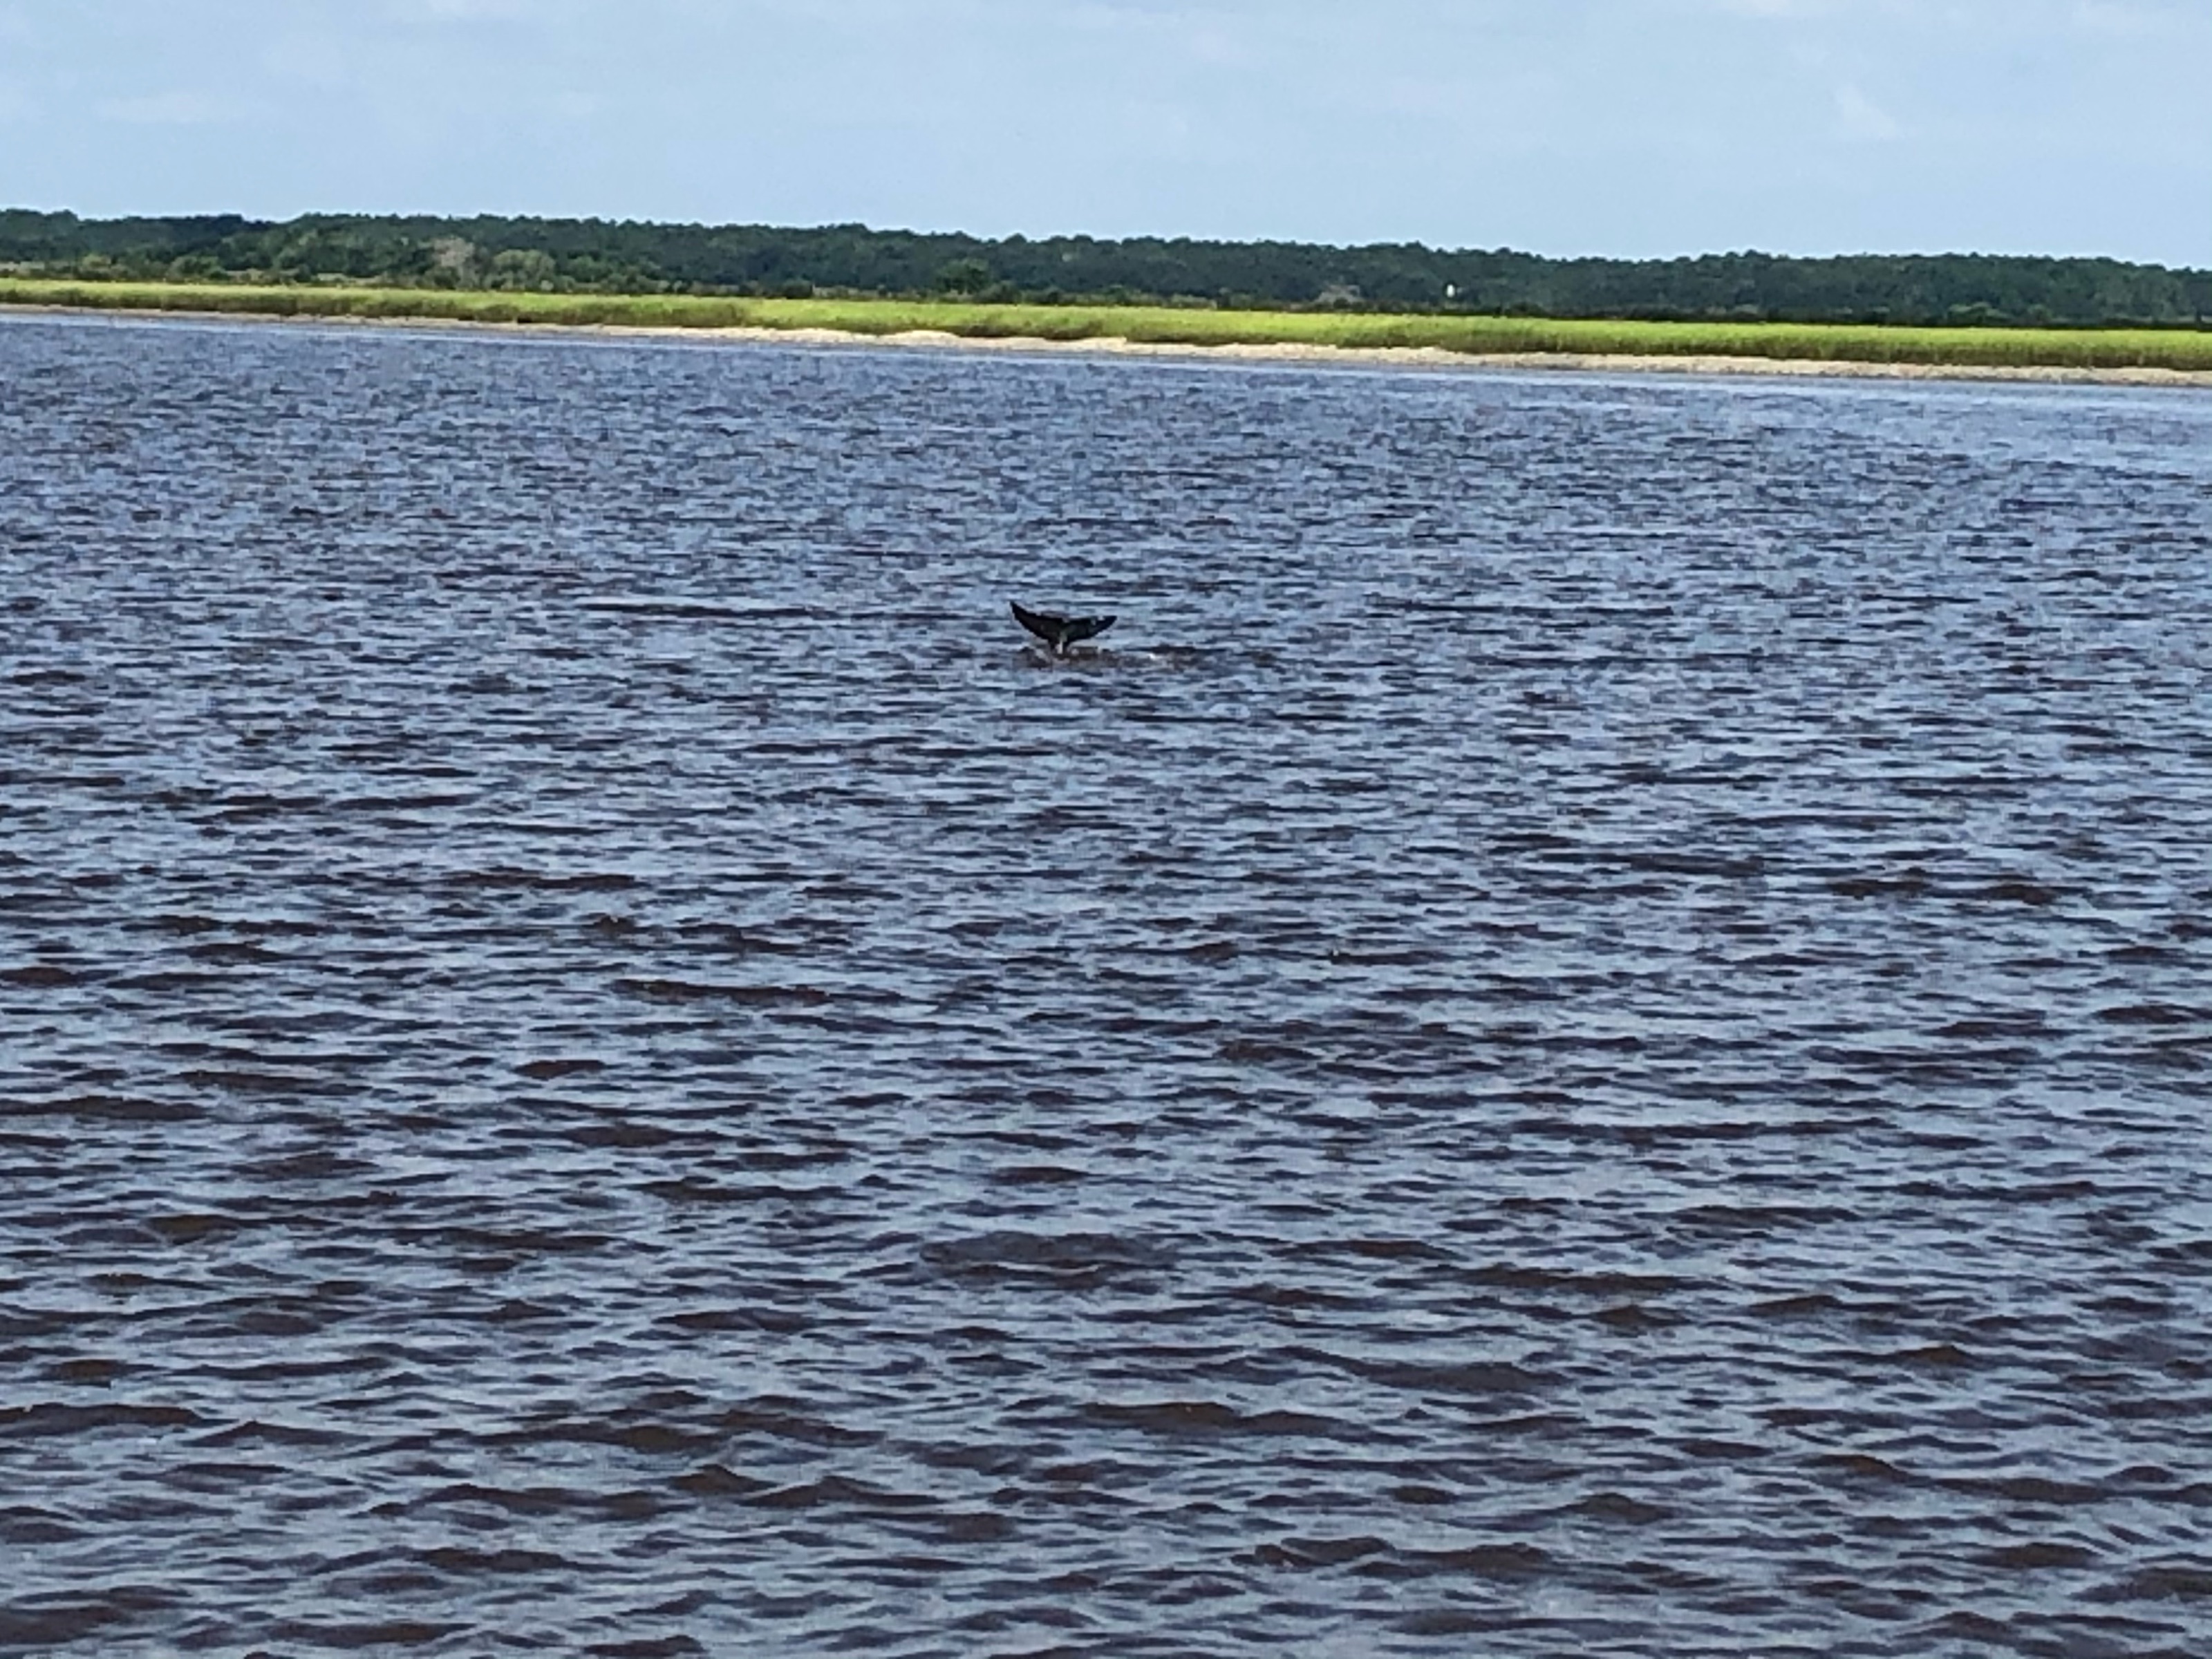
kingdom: Animalia
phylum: Chordata
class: Mammalia
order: Cetacea
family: Delphinidae
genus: Tursiops
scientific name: Tursiops truncatus
